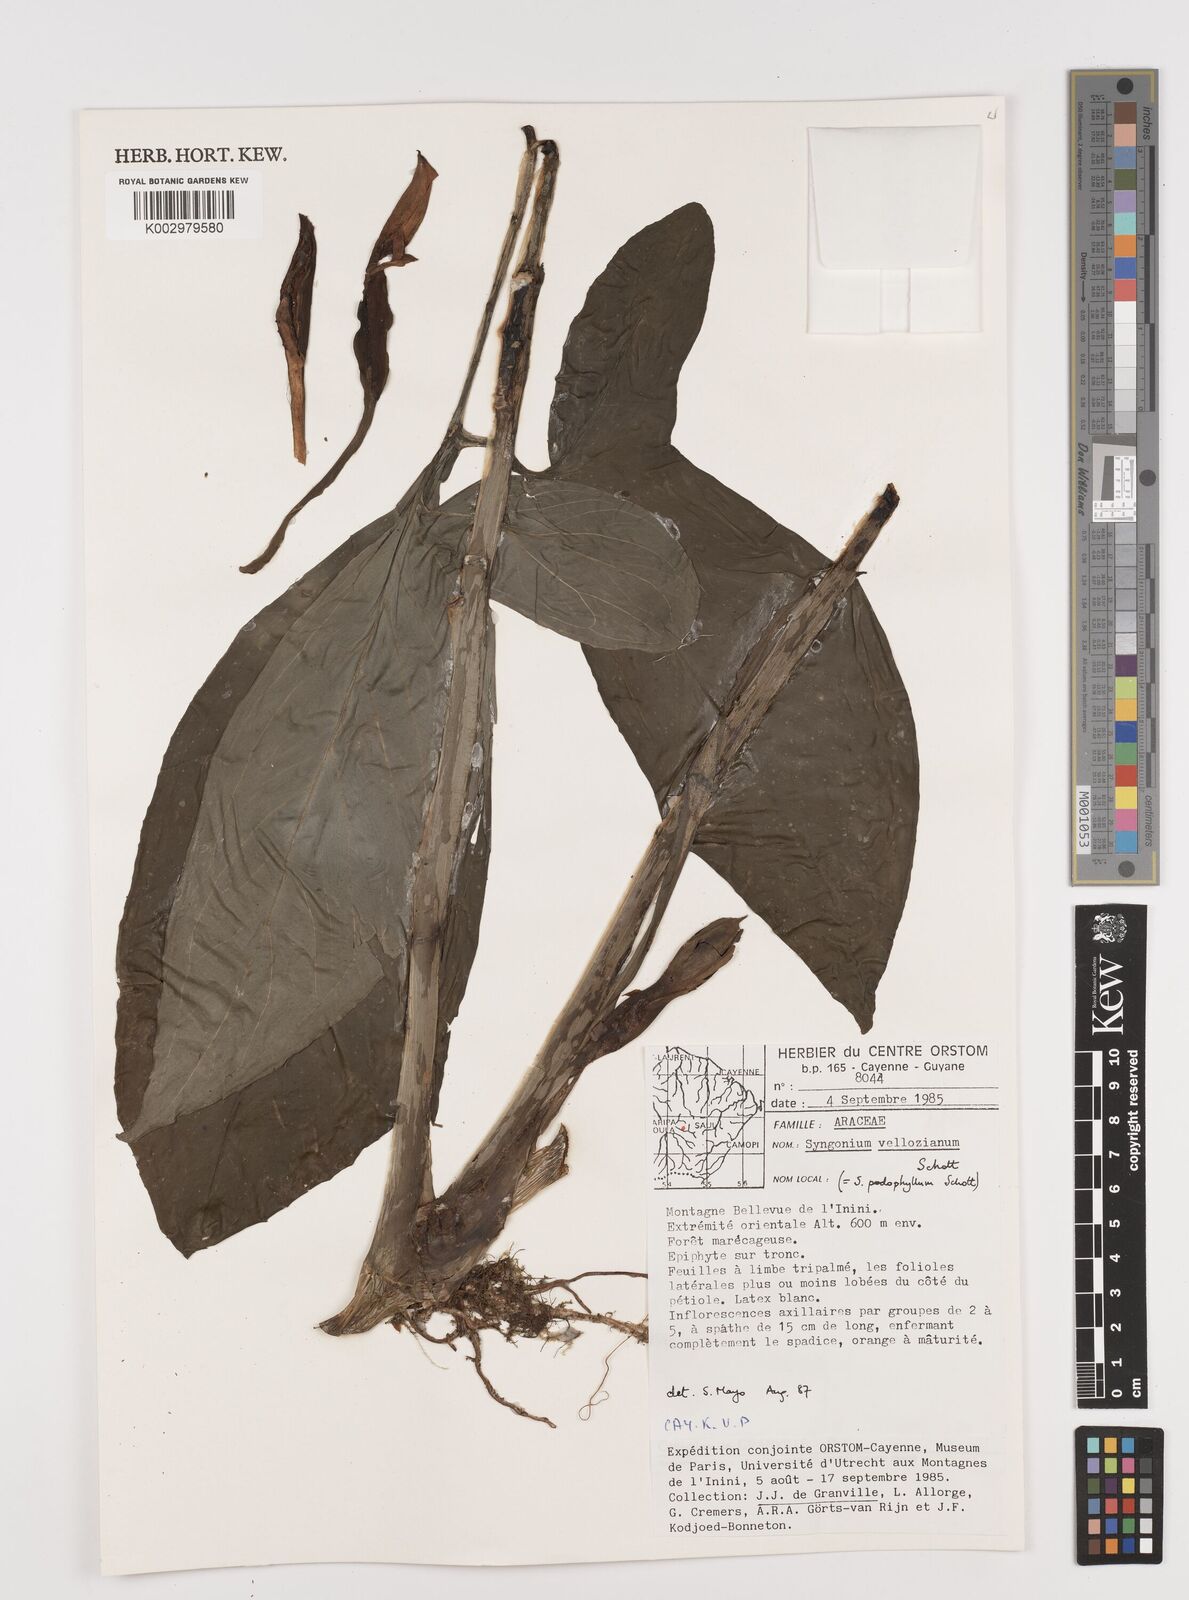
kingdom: Plantae
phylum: Tracheophyta
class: Liliopsida
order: Alismatales
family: Araceae
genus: Syngonium
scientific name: Syngonium podophyllum
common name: American evergreen
